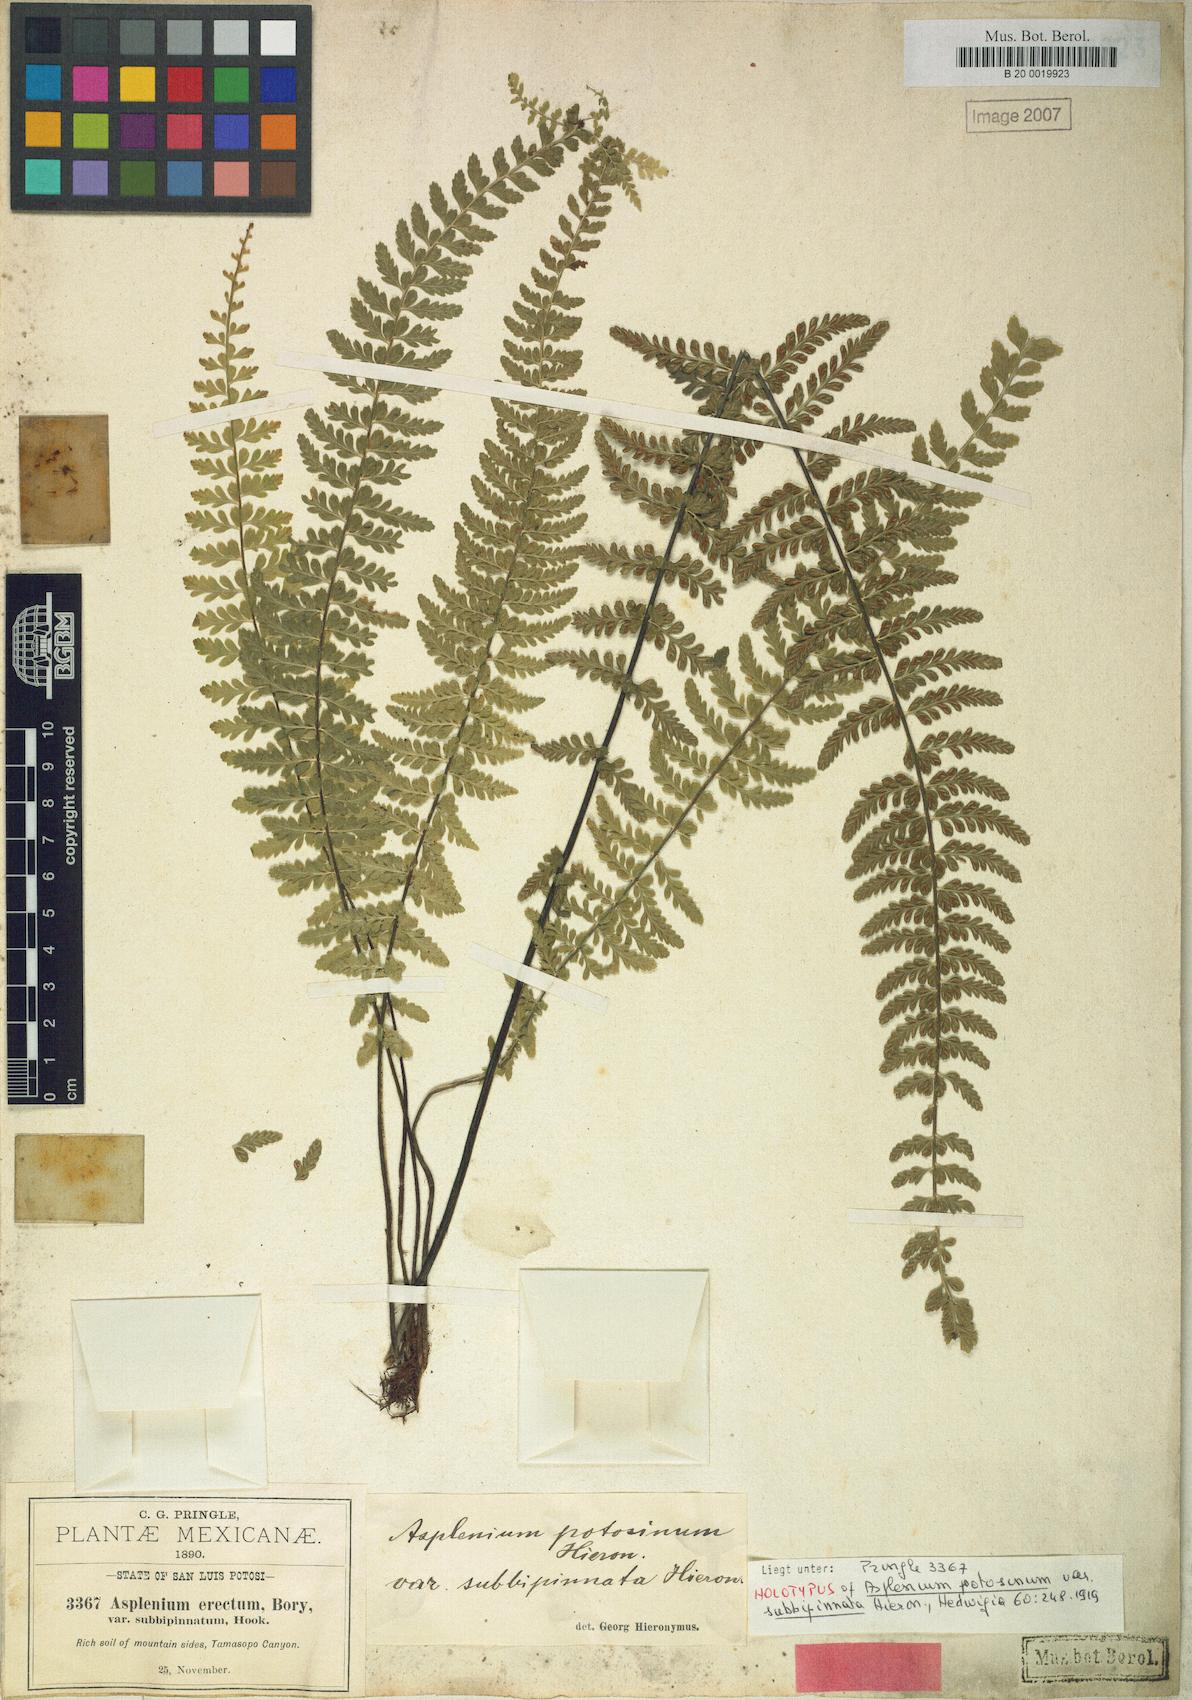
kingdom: Plantae
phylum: Tracheophyta
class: Polypodiopsida
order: Polypodiales
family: Aspleniaceae
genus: Asplenium
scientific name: Asplenium potosinum
